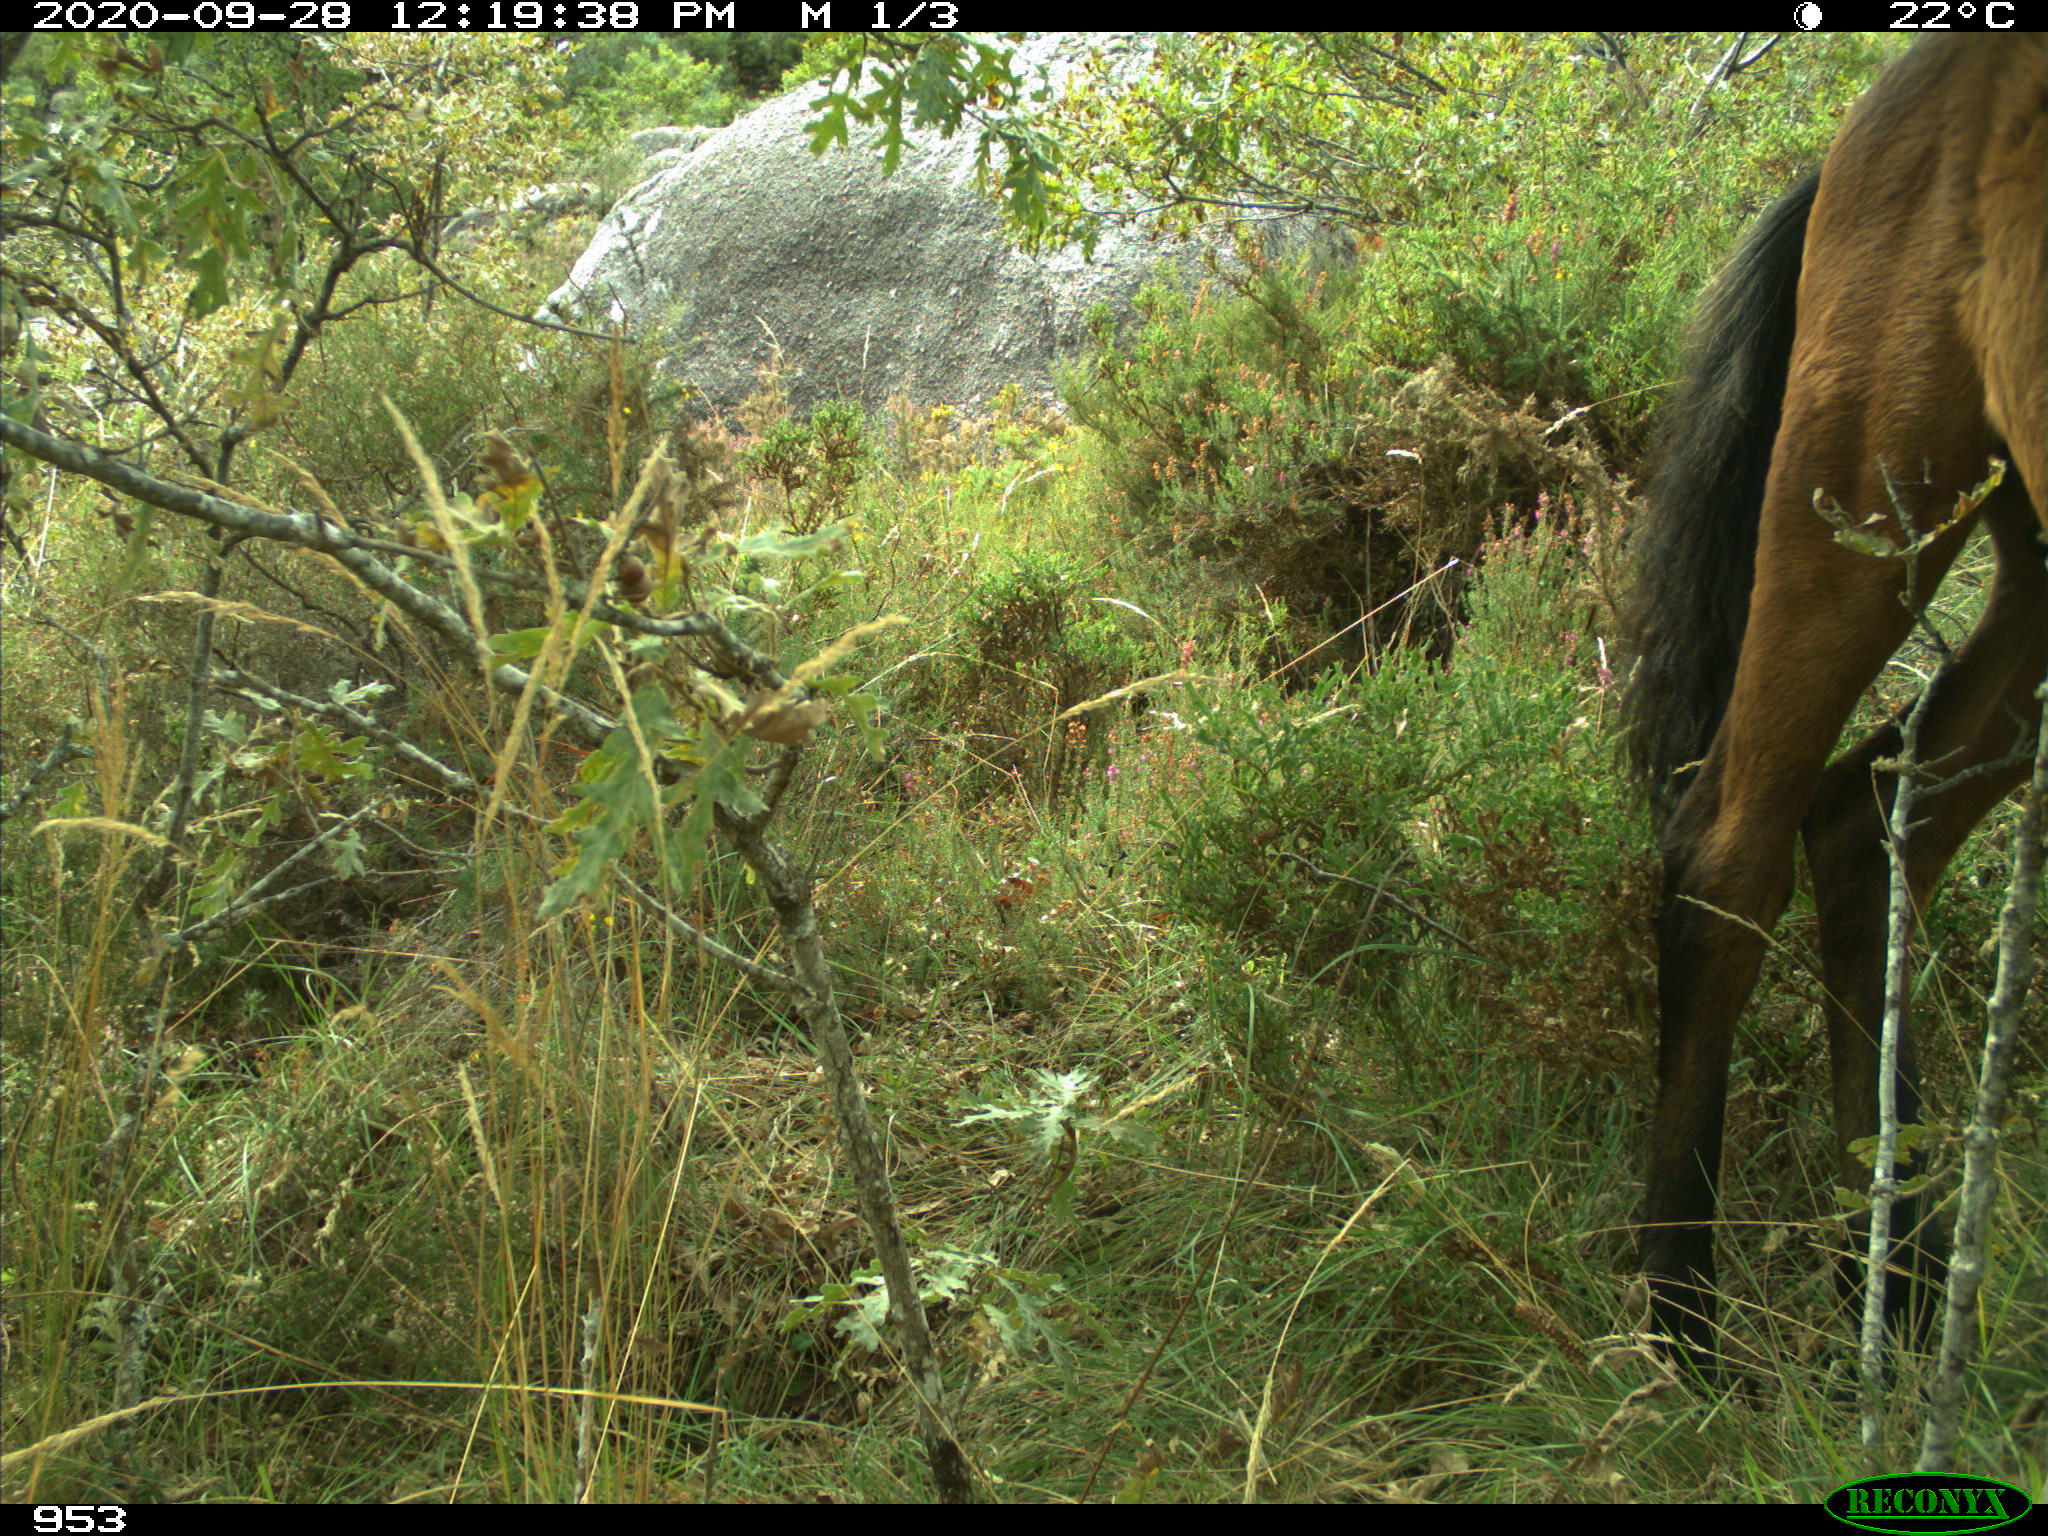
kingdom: Animalia
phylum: Chordata
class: Mammalia
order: Perissodactyla
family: Equidae
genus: Equus
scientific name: Equus caballus
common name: Horse
